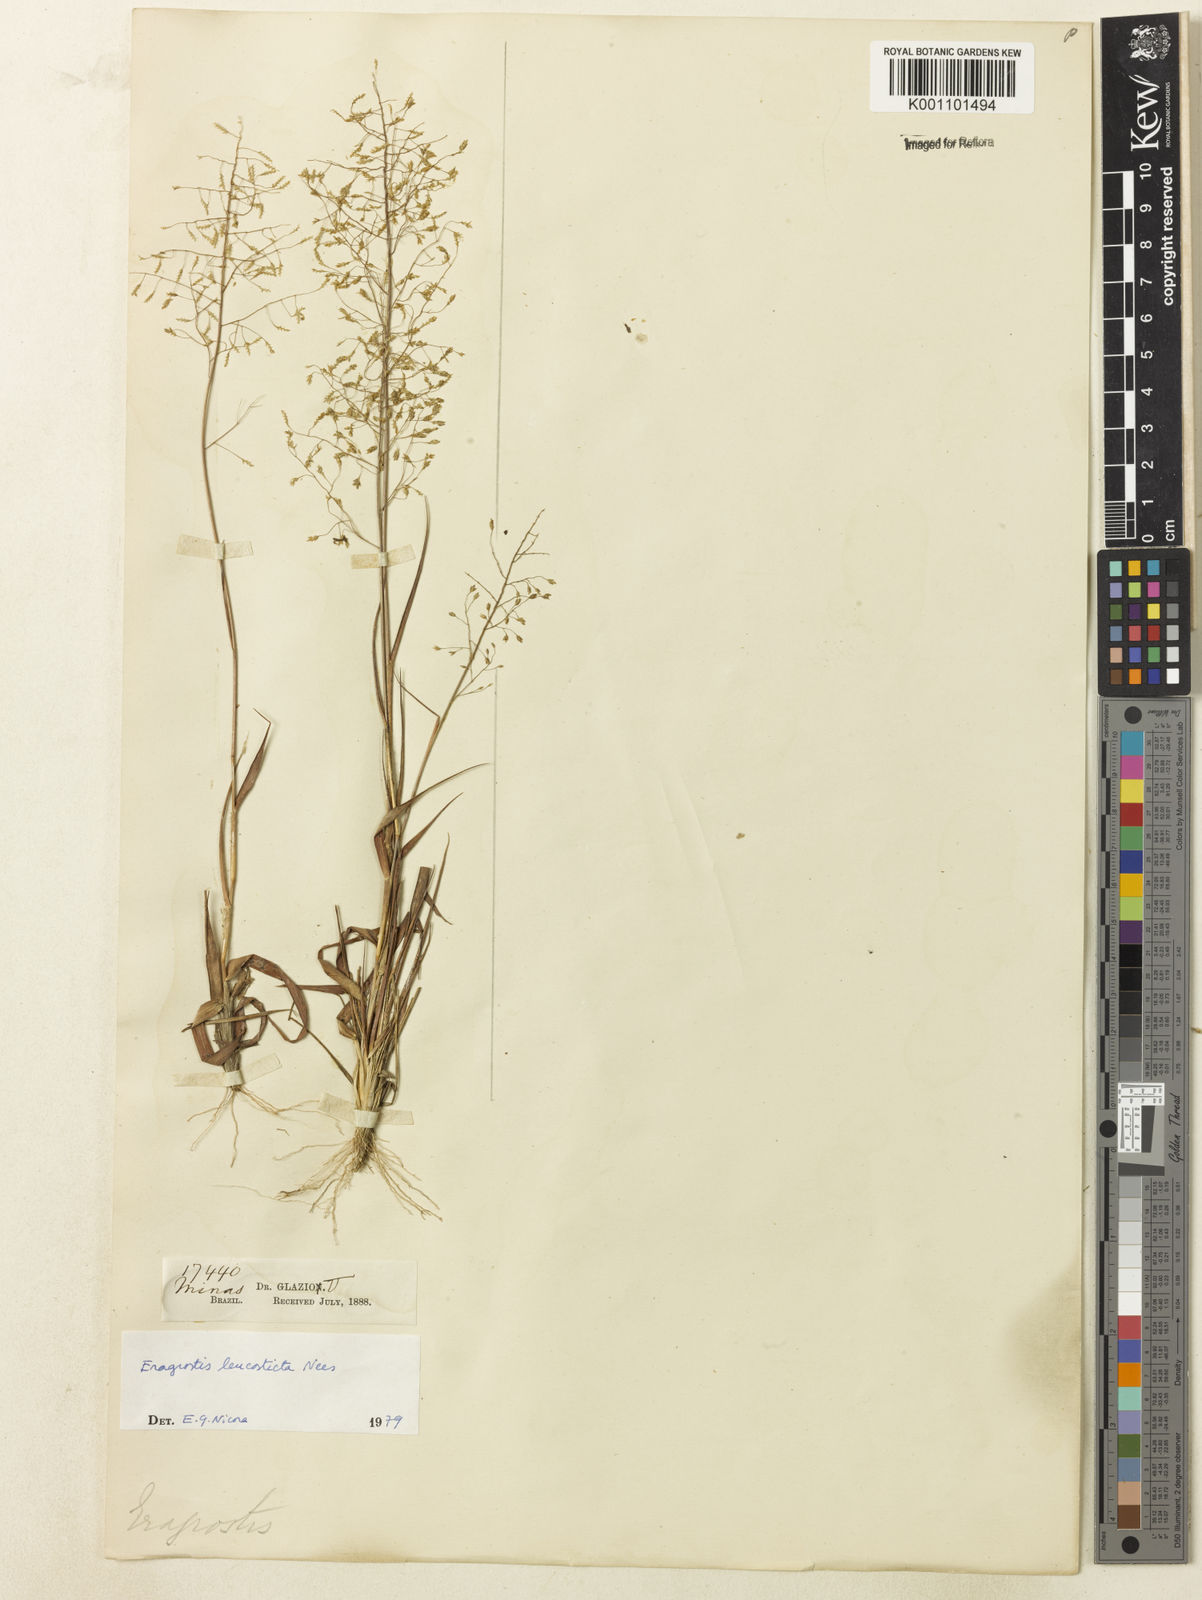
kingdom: Plantae
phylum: Tracheophyta
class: Liliopsida
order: Poales
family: Poaceae
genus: Eragrostis
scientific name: Eragrostis
